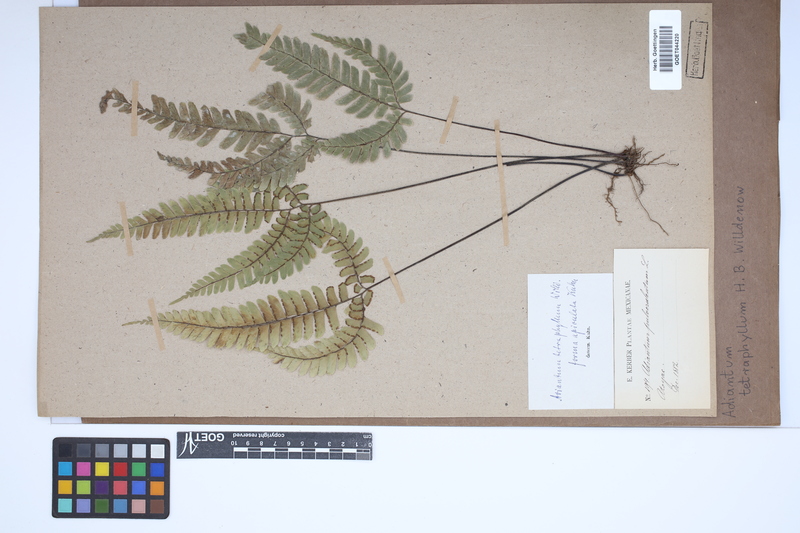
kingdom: Plantae
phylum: Tracheophyta
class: Polypodiopsida
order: Polypodiales
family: Pteridaceae
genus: Adiantum
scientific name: Adiantum tetraphyllum
